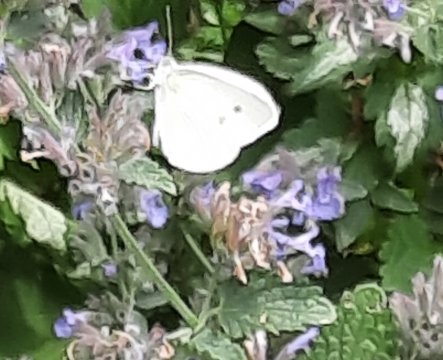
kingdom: Animalia
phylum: Arthropoda
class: Insecta
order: Lepidoptera
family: Pieridae
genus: Pieris
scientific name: Pieris rapae
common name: Cabbage White
